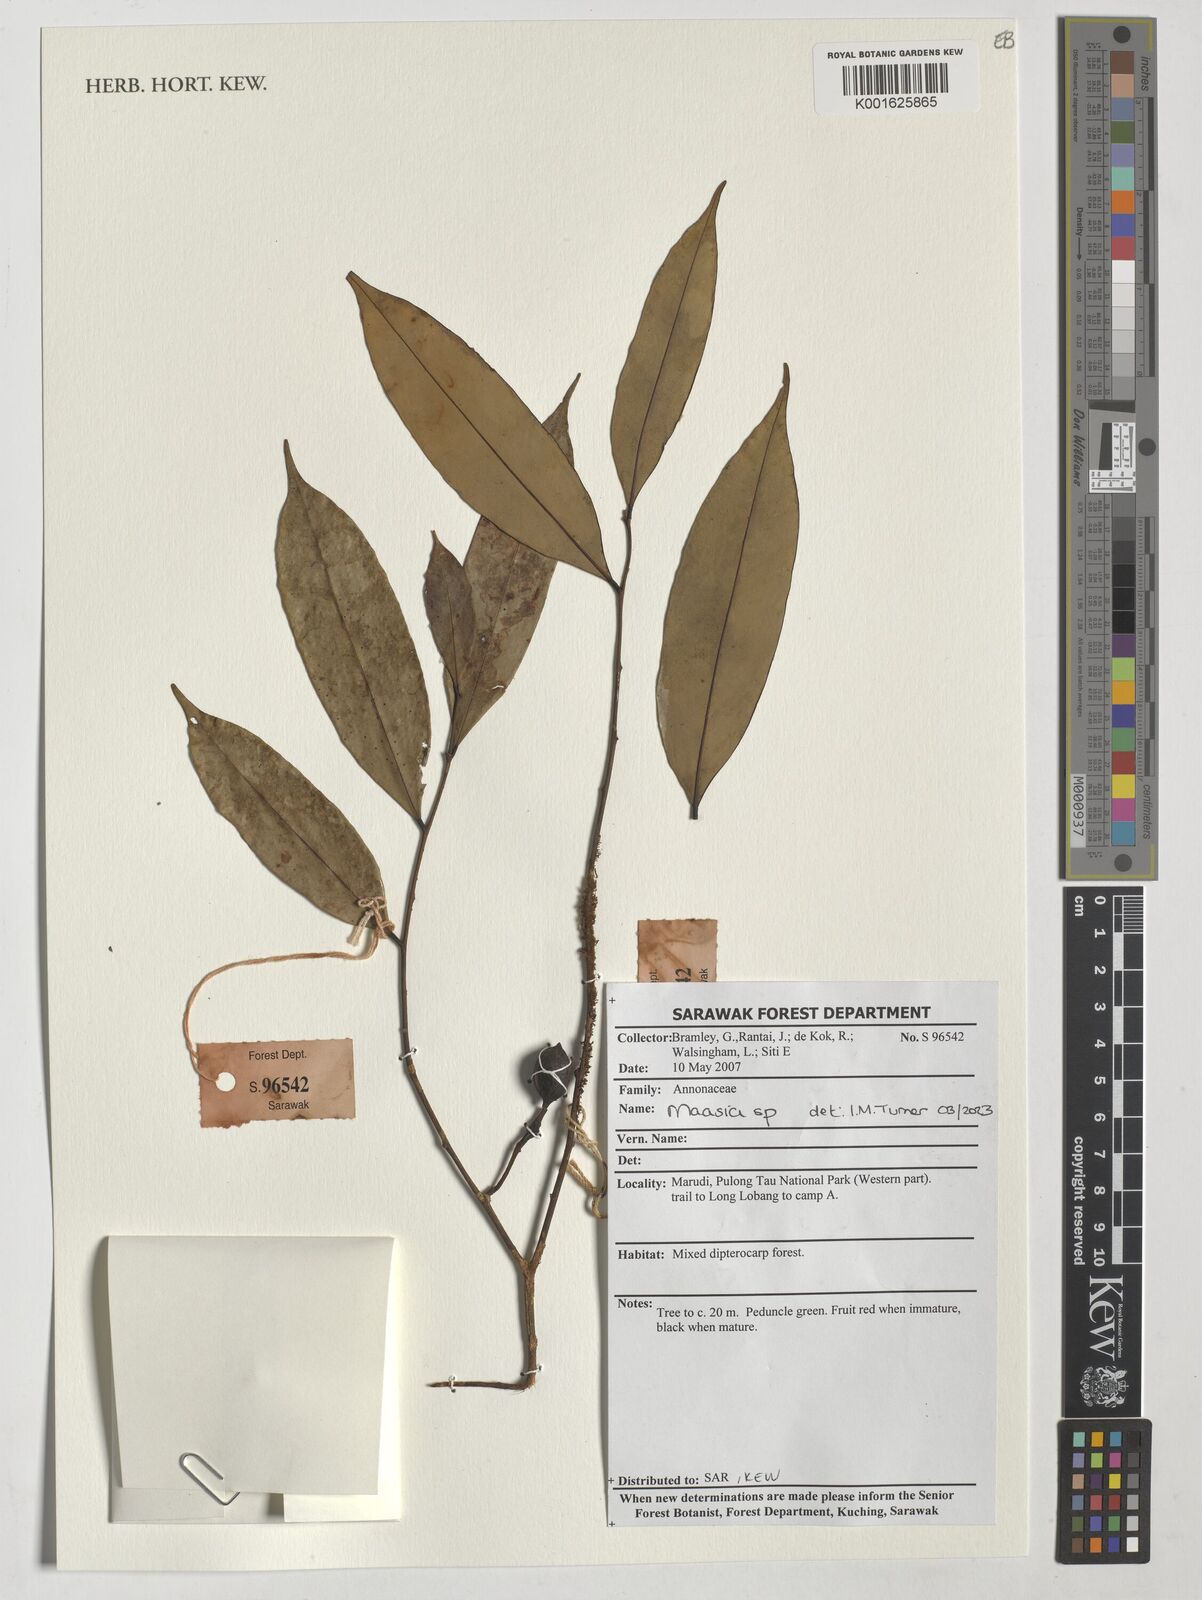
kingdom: Plantae
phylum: Tracheophyta
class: Magnoliopsida
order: Magnoliales
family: Annonaceae
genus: Maasia
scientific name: Maasia
